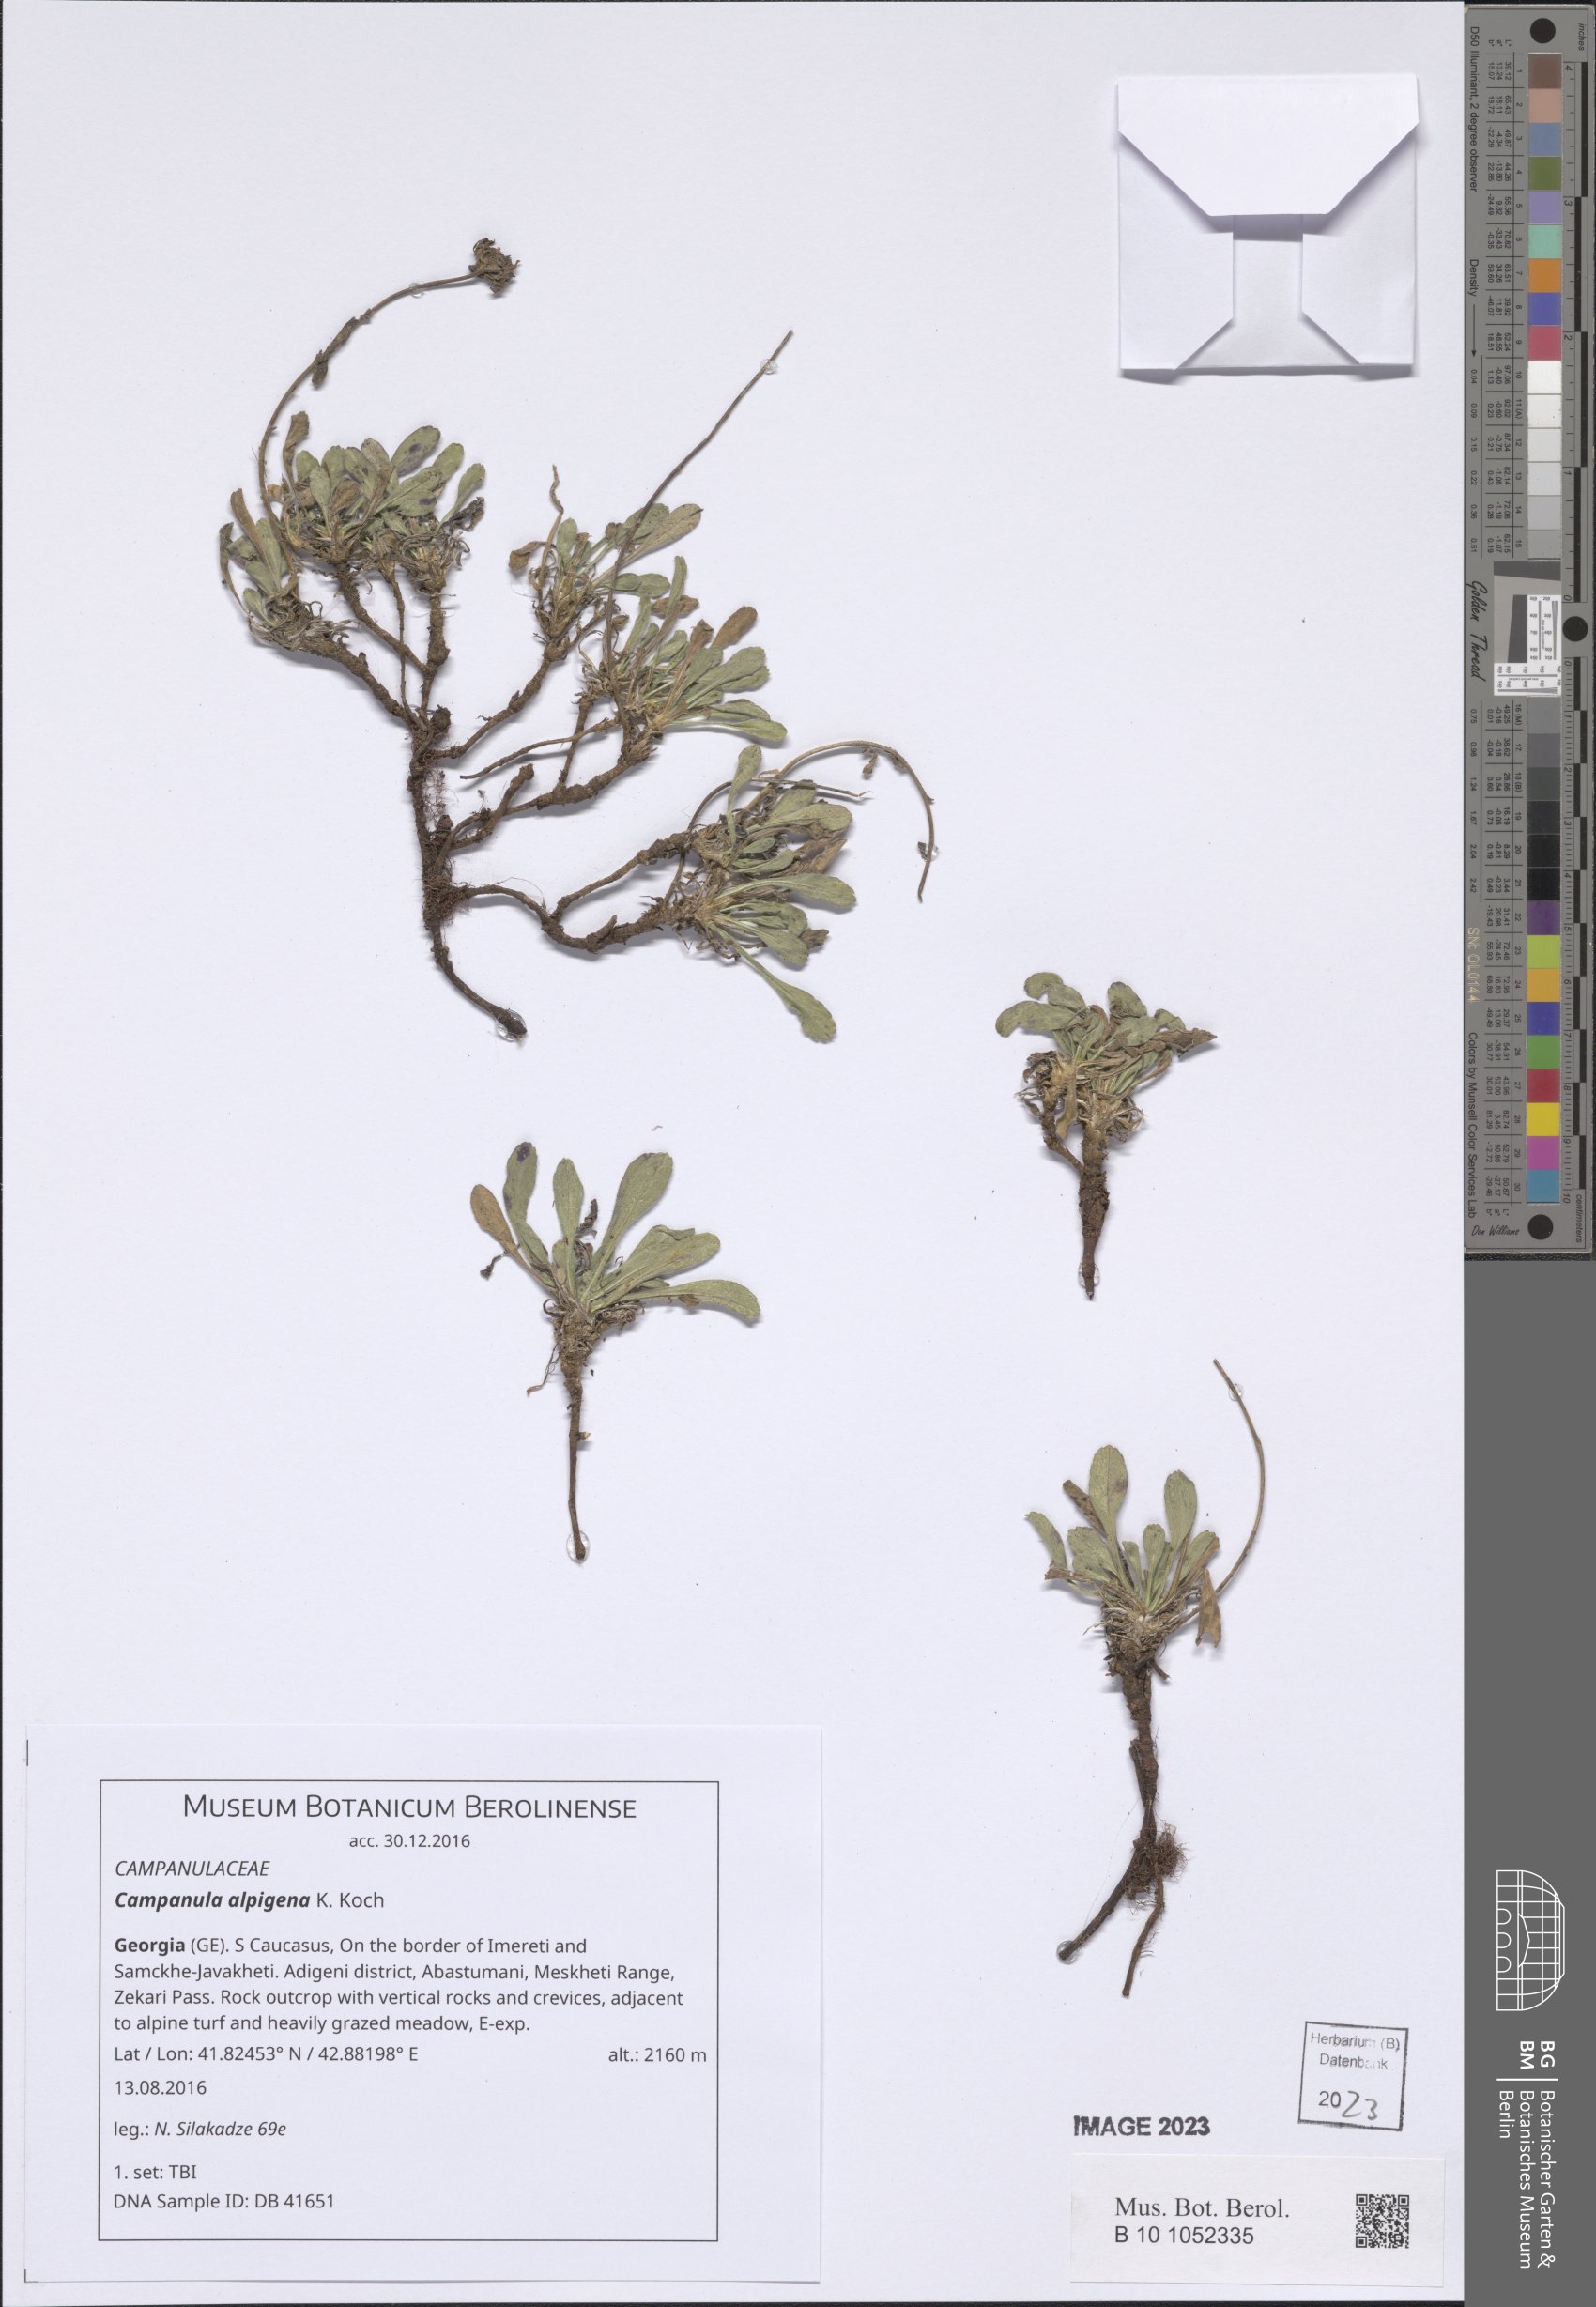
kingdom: Plantae
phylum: Tracheophyta
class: Magnoliopsida
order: Asterales
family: Campanulaceae
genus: Campanula
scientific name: Campanula saxifraga
